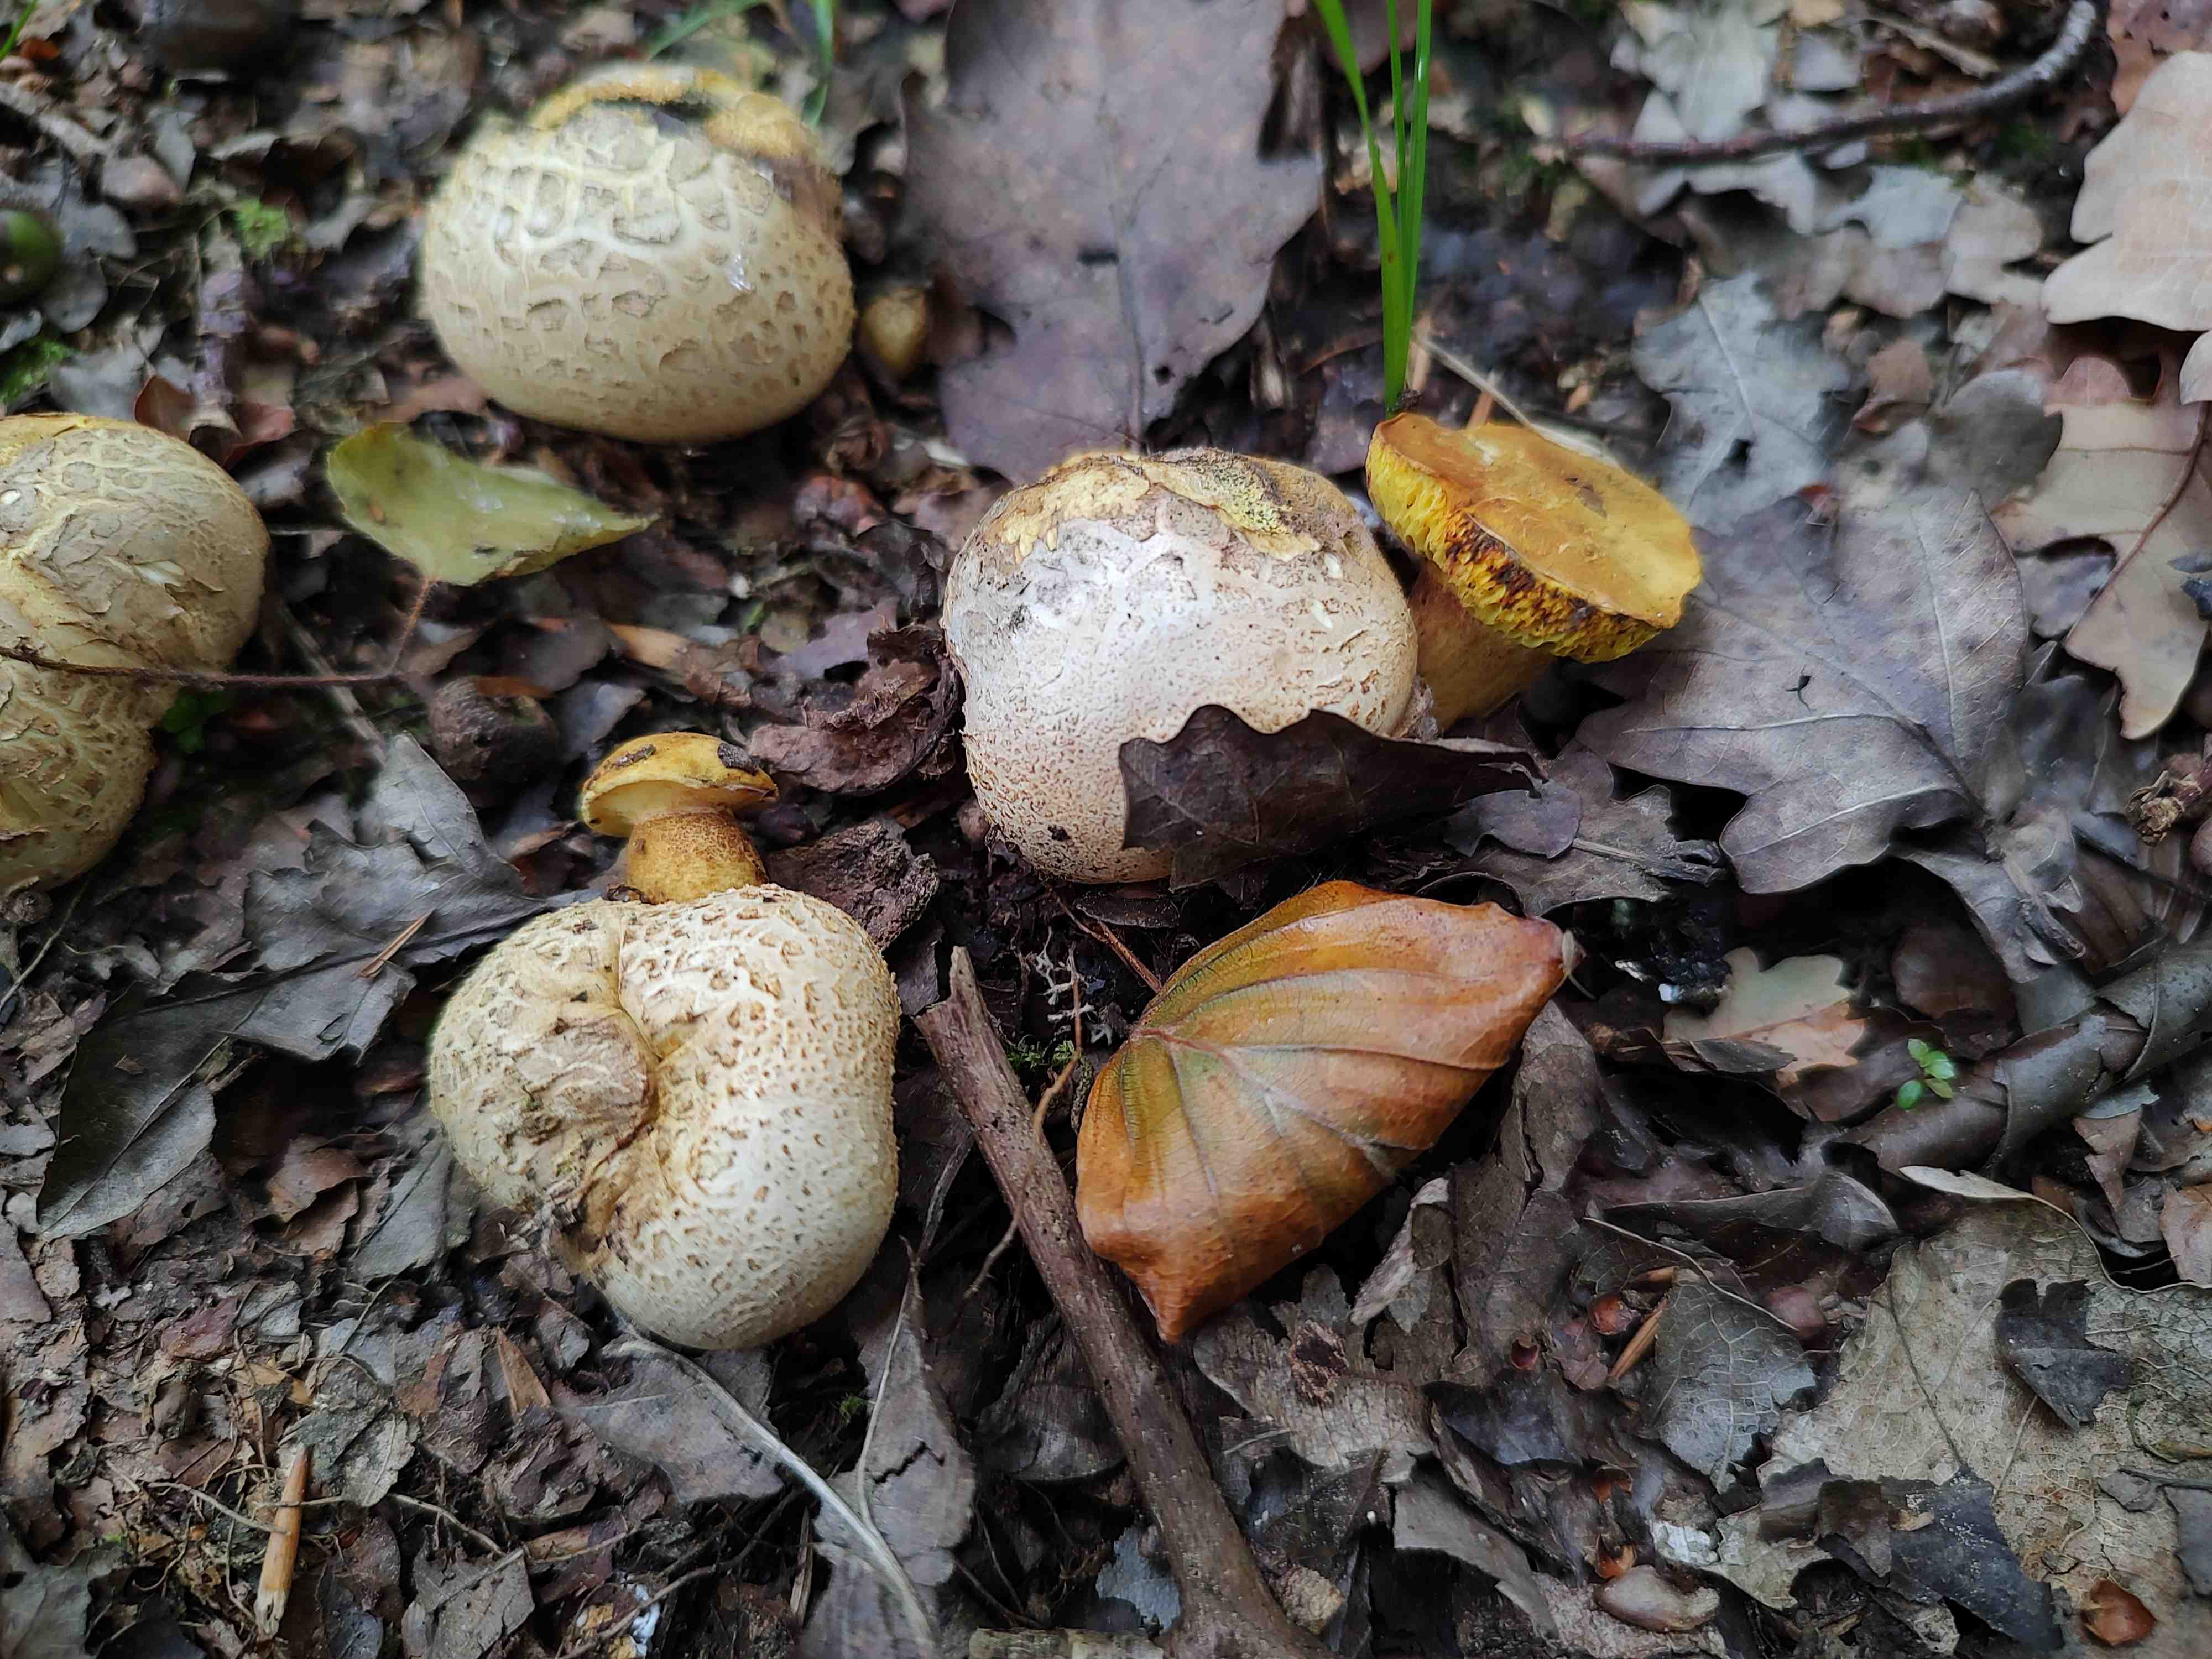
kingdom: Fungi
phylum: Basidiomycota
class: Agaricomycetes
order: Boletales
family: Boletaceae
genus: Pseudoboletus
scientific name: Pseudoboletus parasiticus
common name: snyltende rørhat
